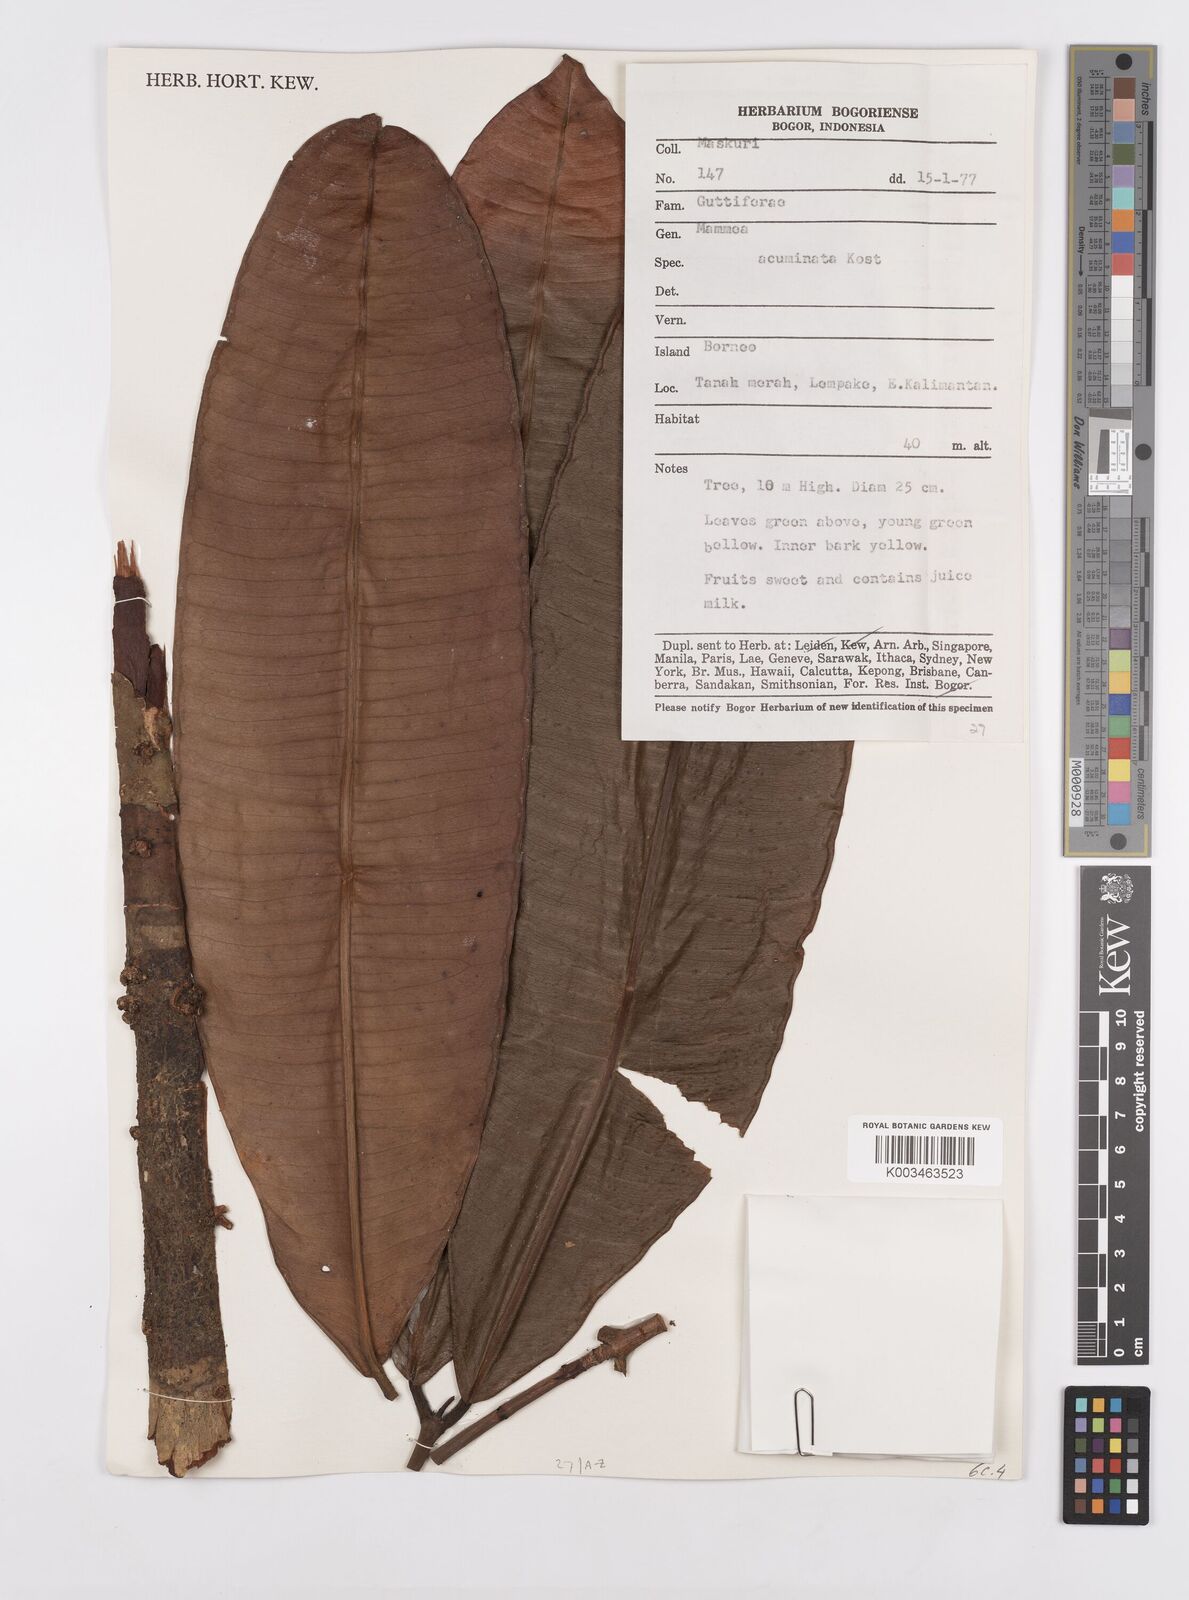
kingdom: Plantae
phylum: Tracheophyta
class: Magnoliopsida
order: Malpighiales
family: Calophyllaceae
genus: Mammea
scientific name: Mammea acuminata
